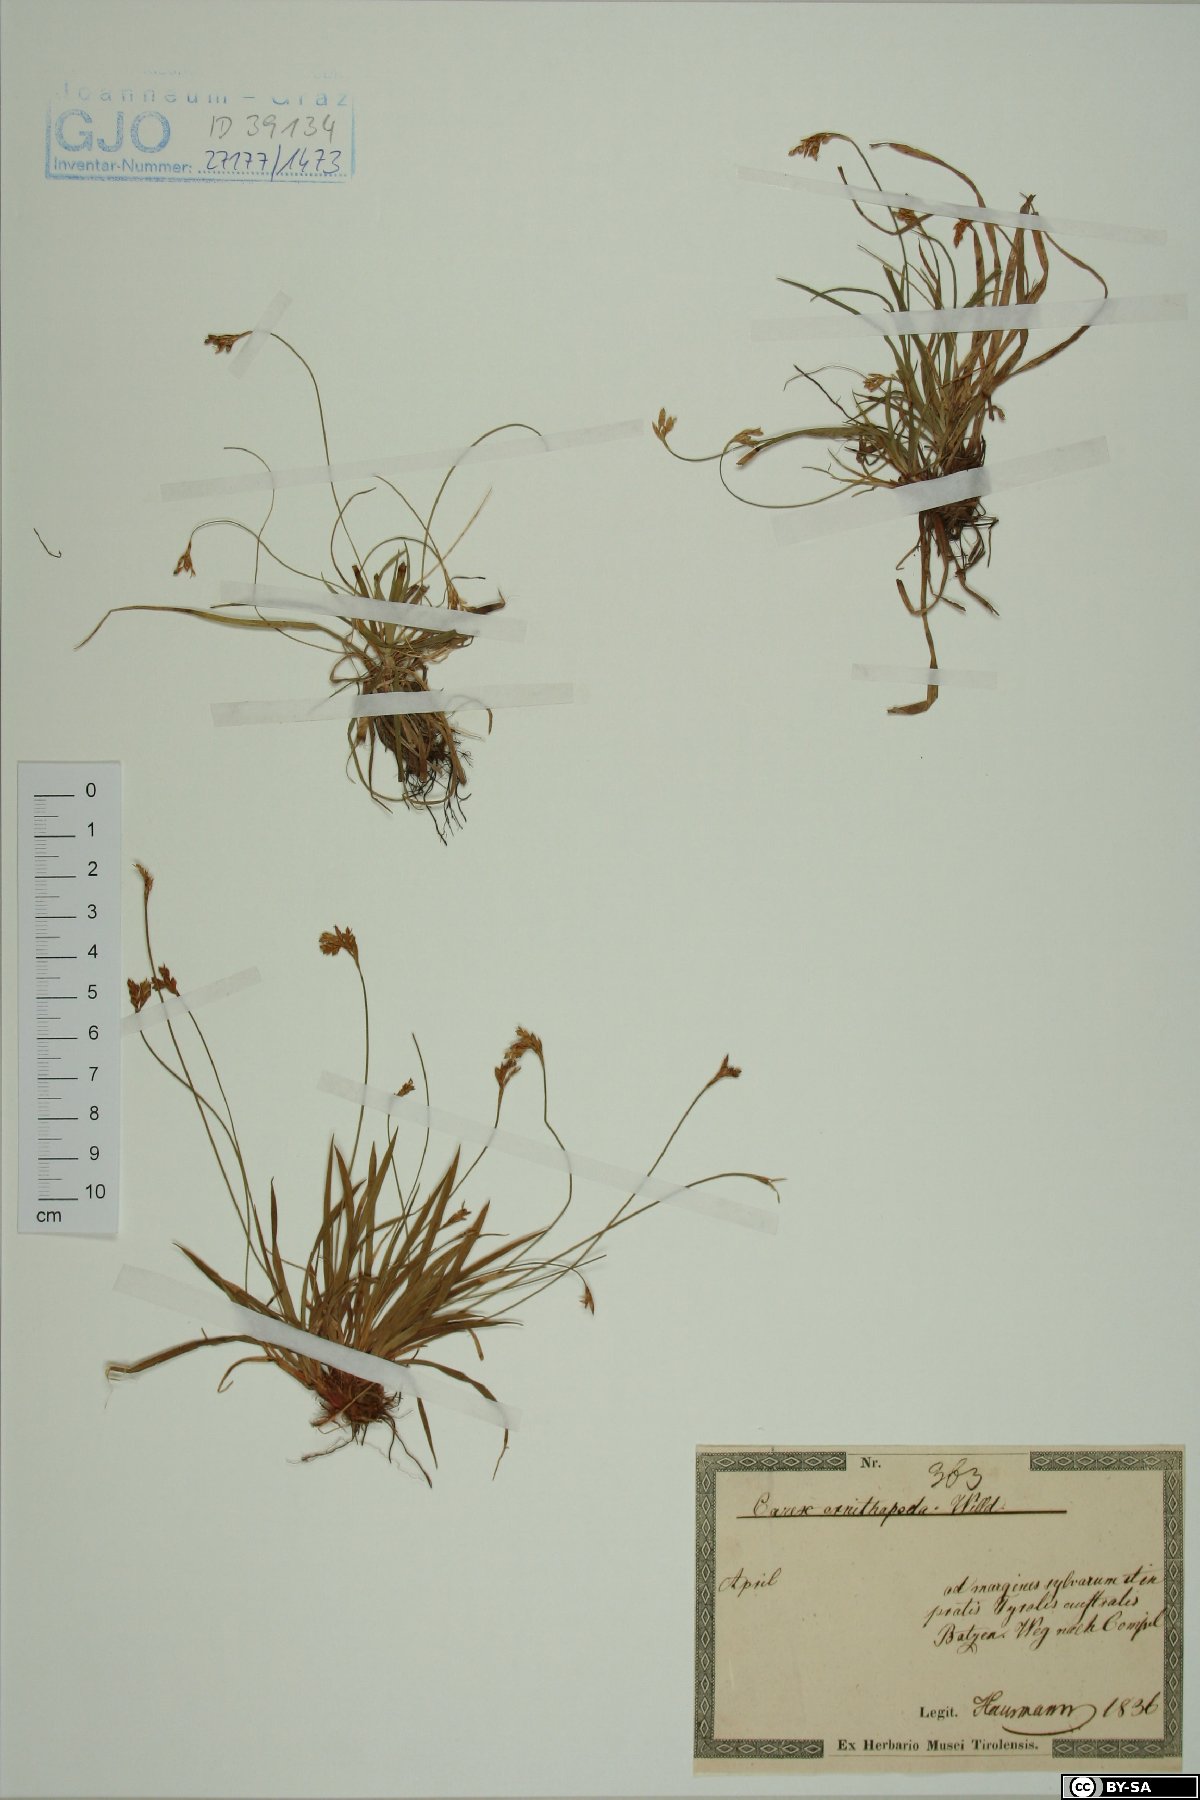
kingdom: Plantae
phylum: Tracheophyta
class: Liliopsida
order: Poales
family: Cyperaceae
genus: Carex
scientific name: Carex ornithopoda
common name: Bird's-foot sedge
